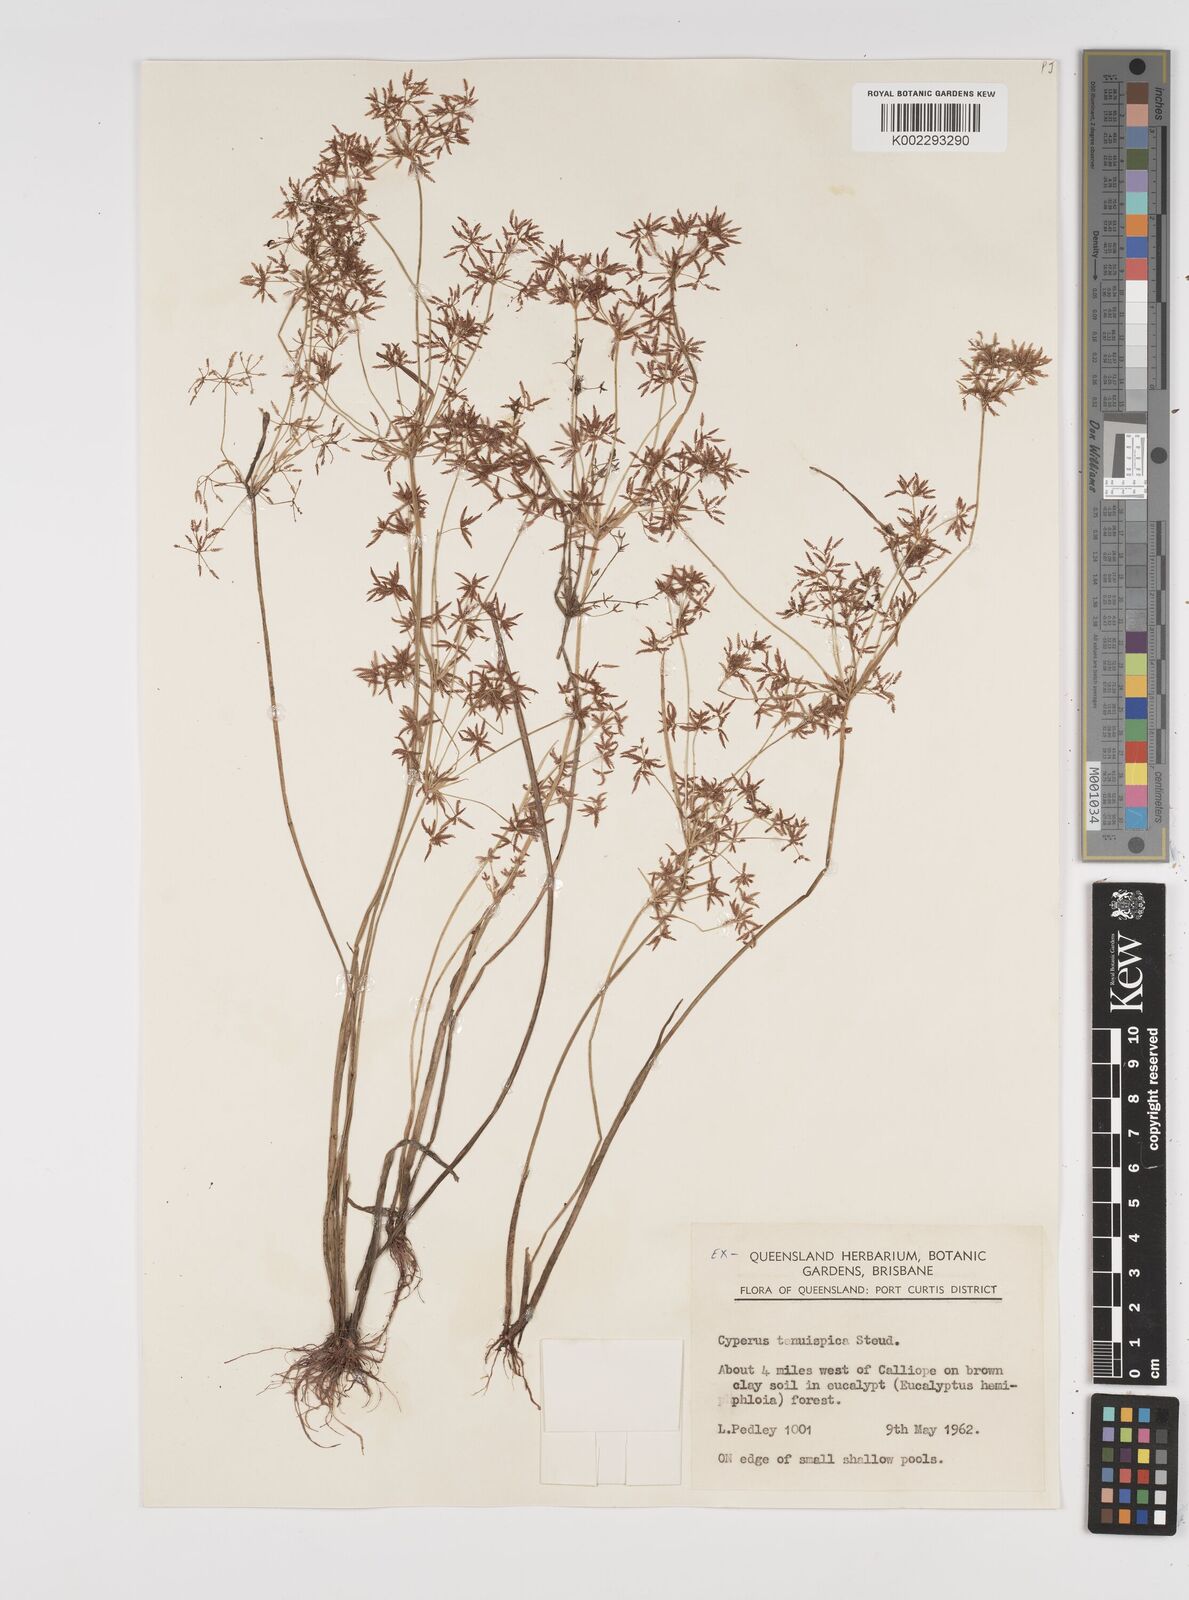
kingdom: Plantae
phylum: Tracheophyta
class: Liliopsida
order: Poales
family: Cyperaceae
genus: Cyperus
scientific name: Cyperus tenuispica
